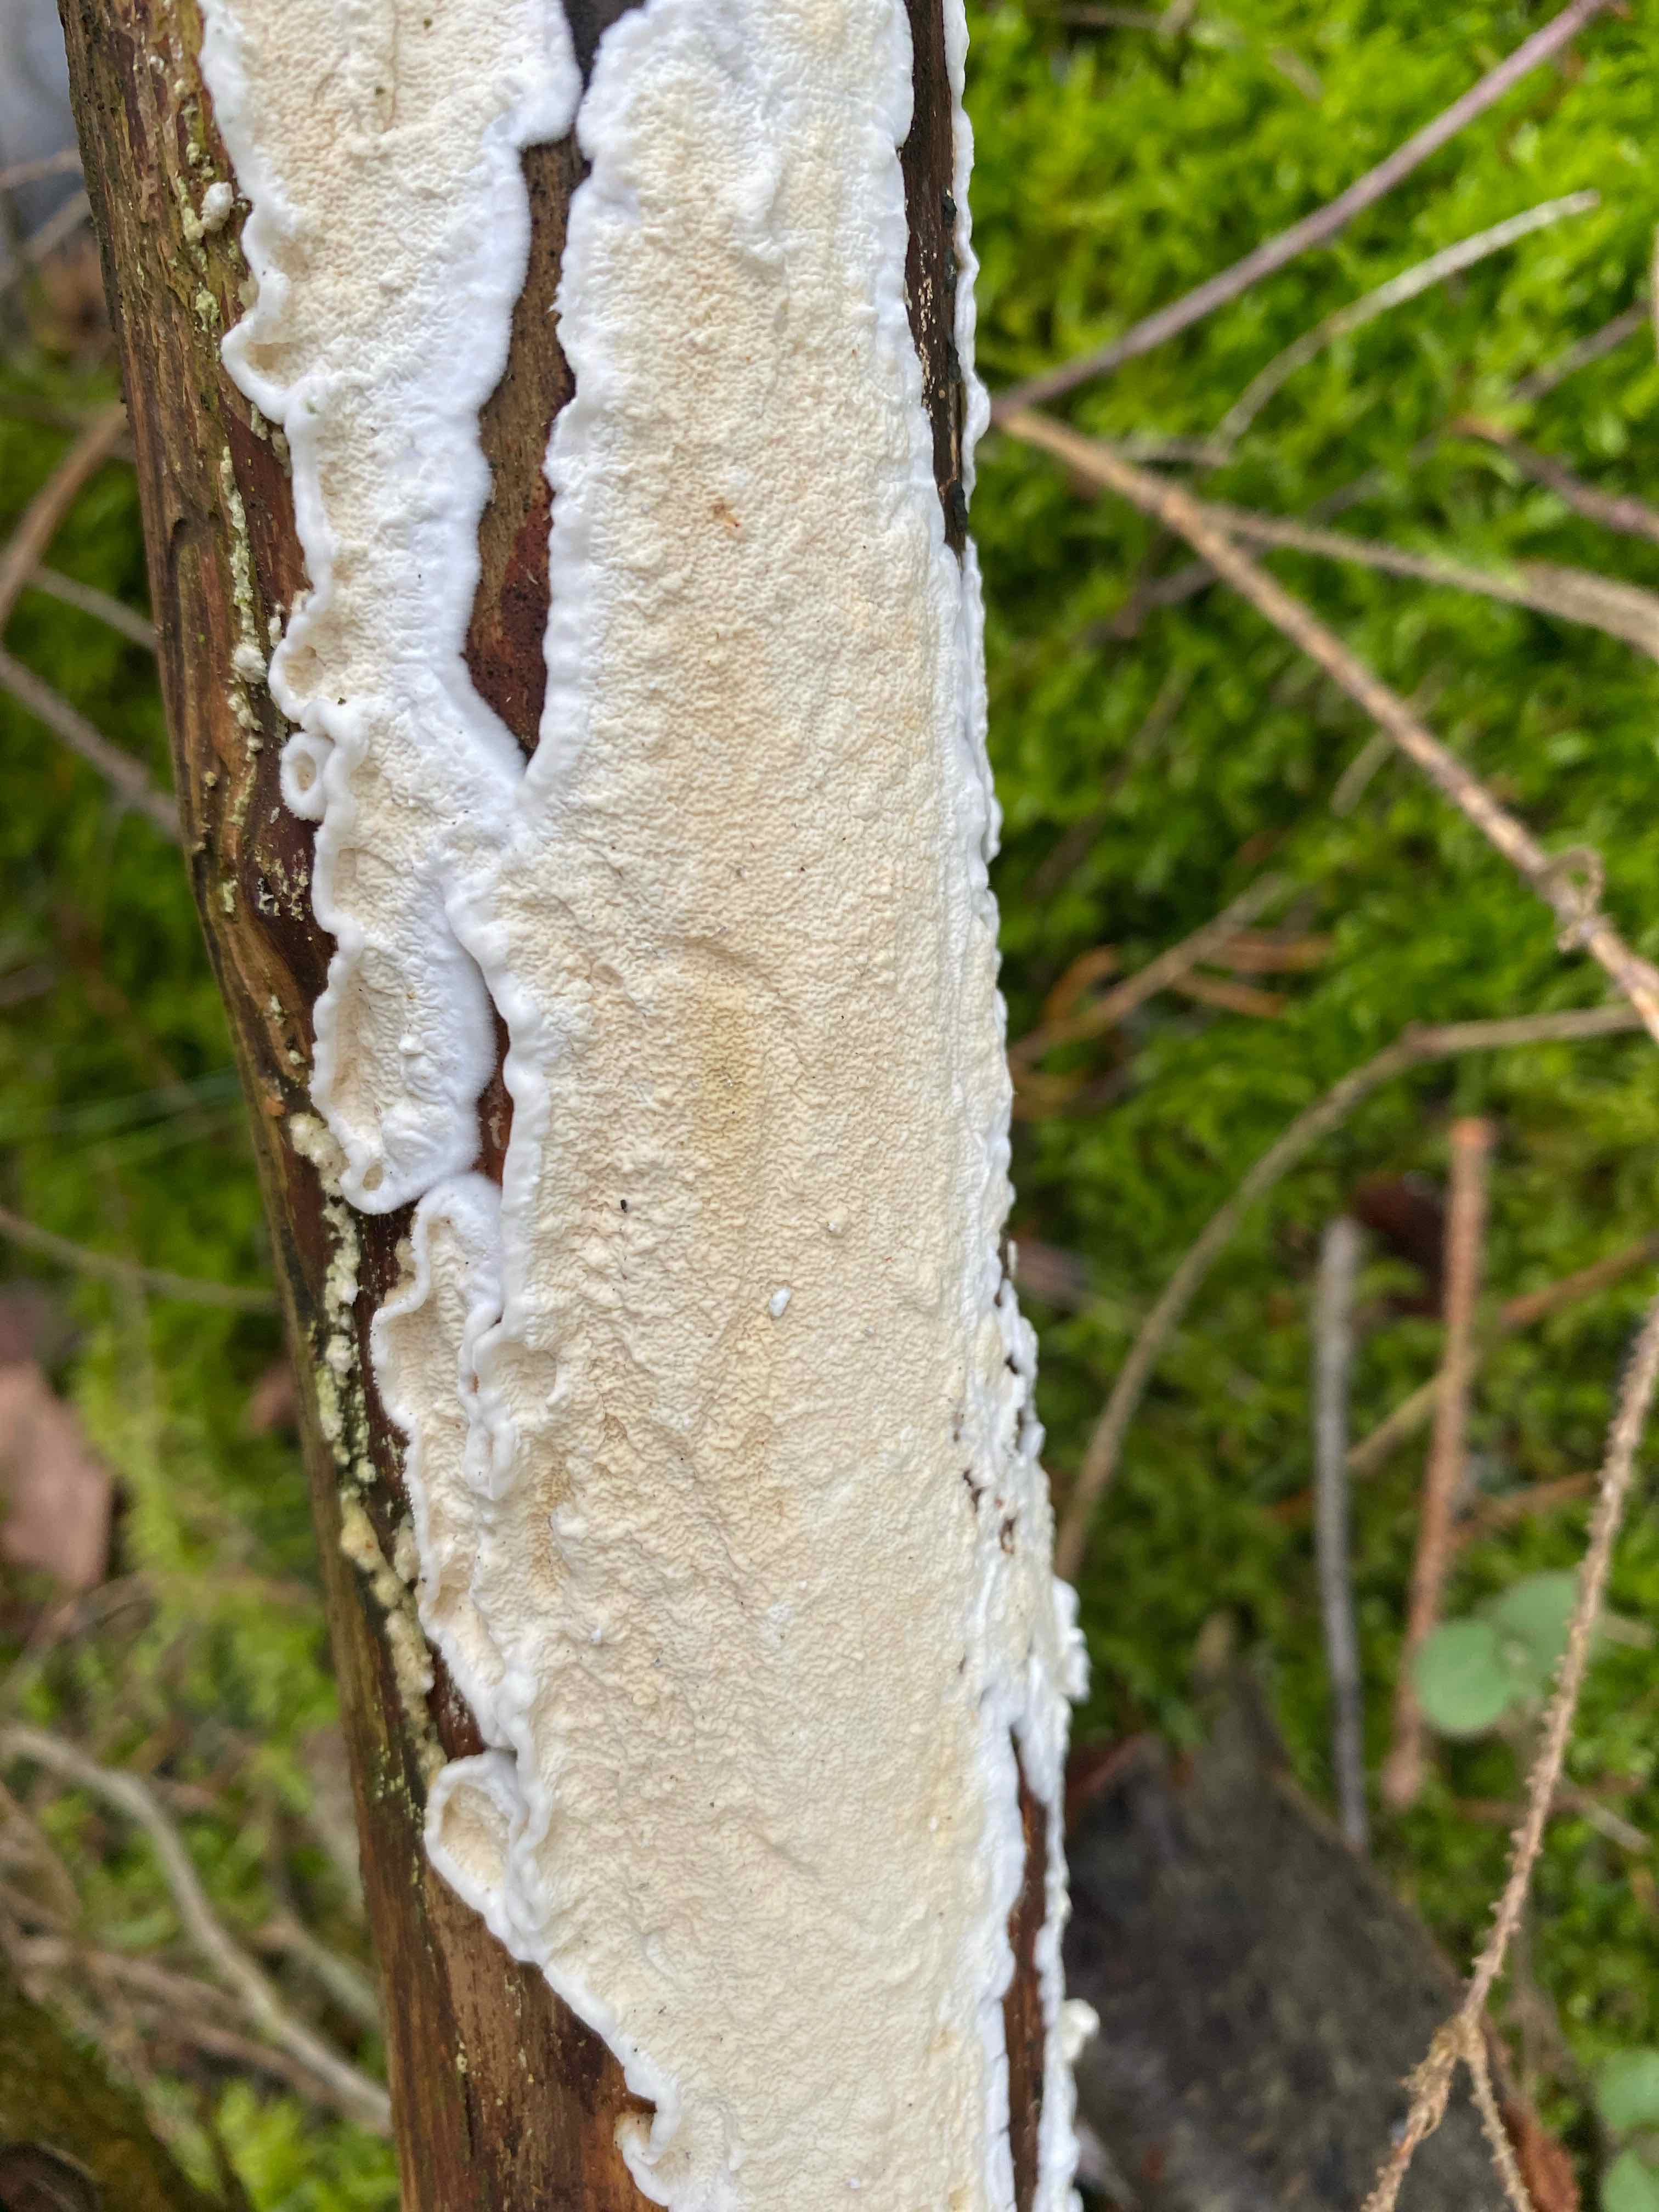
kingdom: Fungi
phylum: Basidiomycota
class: Agaricomycetes
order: Polyporales
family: Irpicaceae
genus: Byssomerulius
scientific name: Byssomerulius corium
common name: læder-åresvamp
